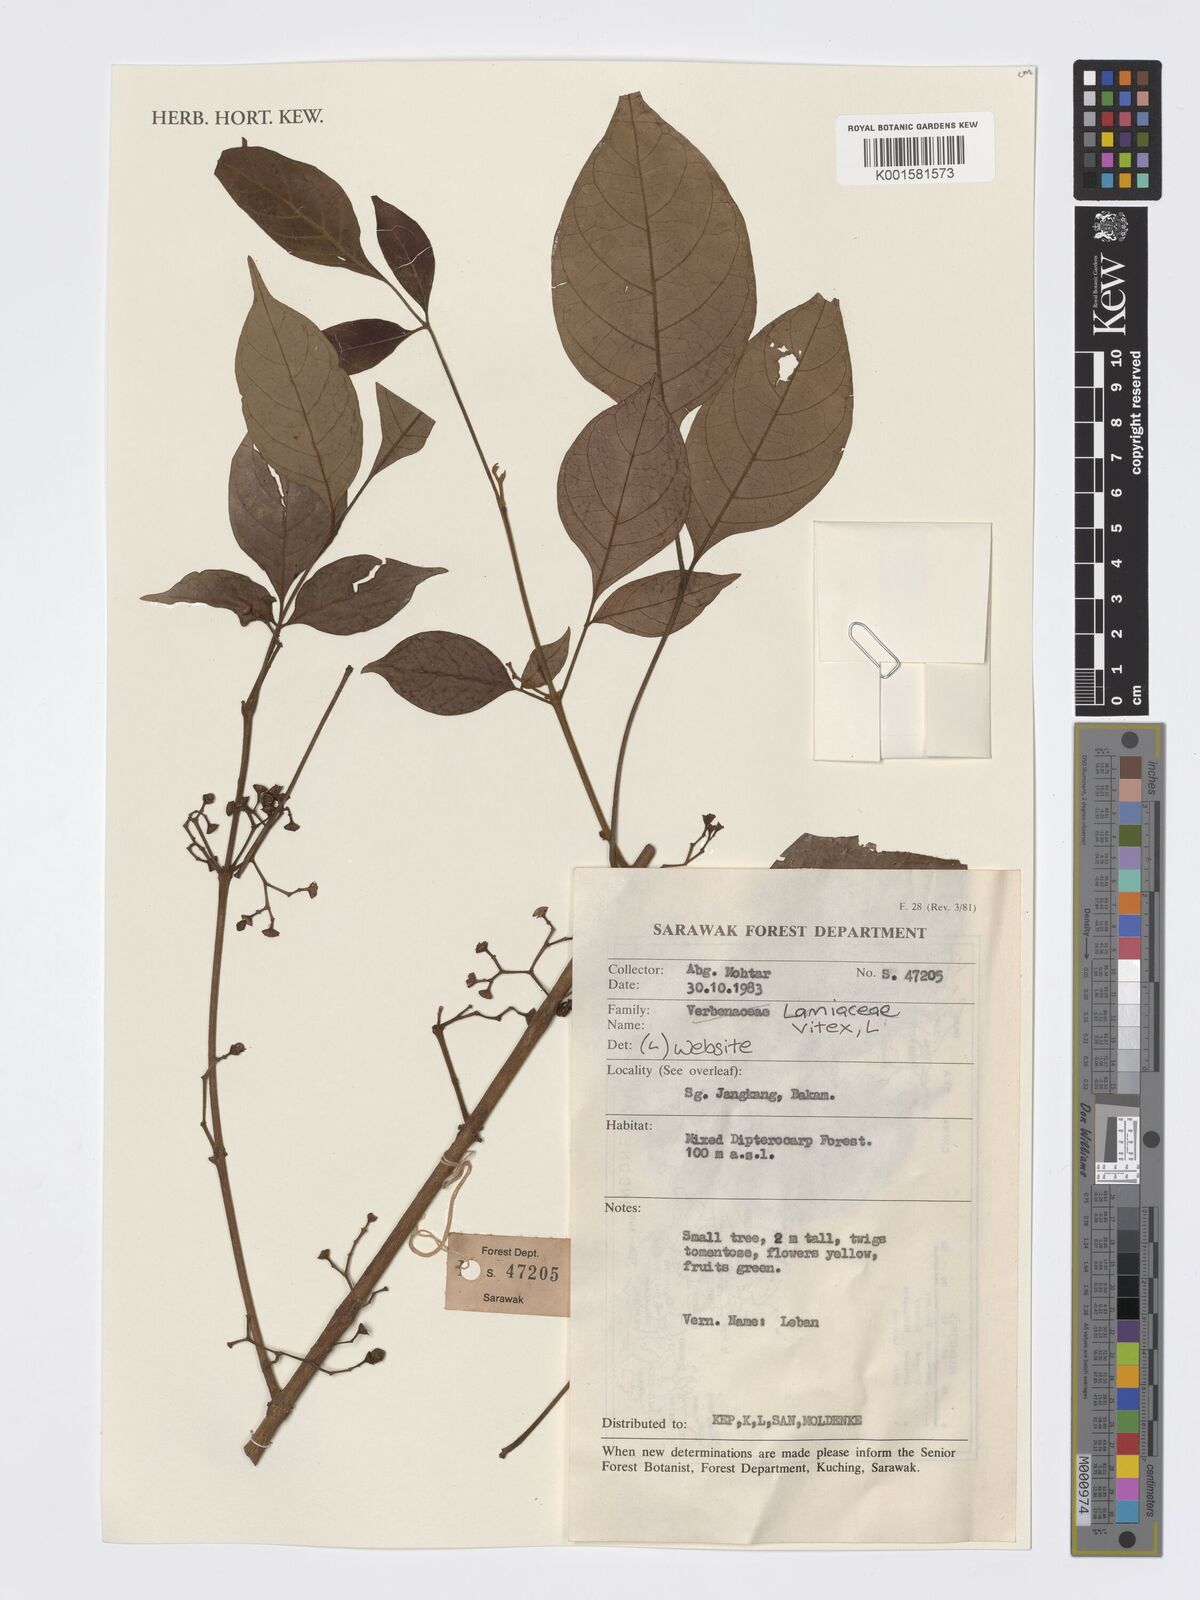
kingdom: Plantae
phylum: Tracheophyta
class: Magnoliopsida
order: Lamiales
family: Lamiaceae
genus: Vitex
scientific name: Vitex
